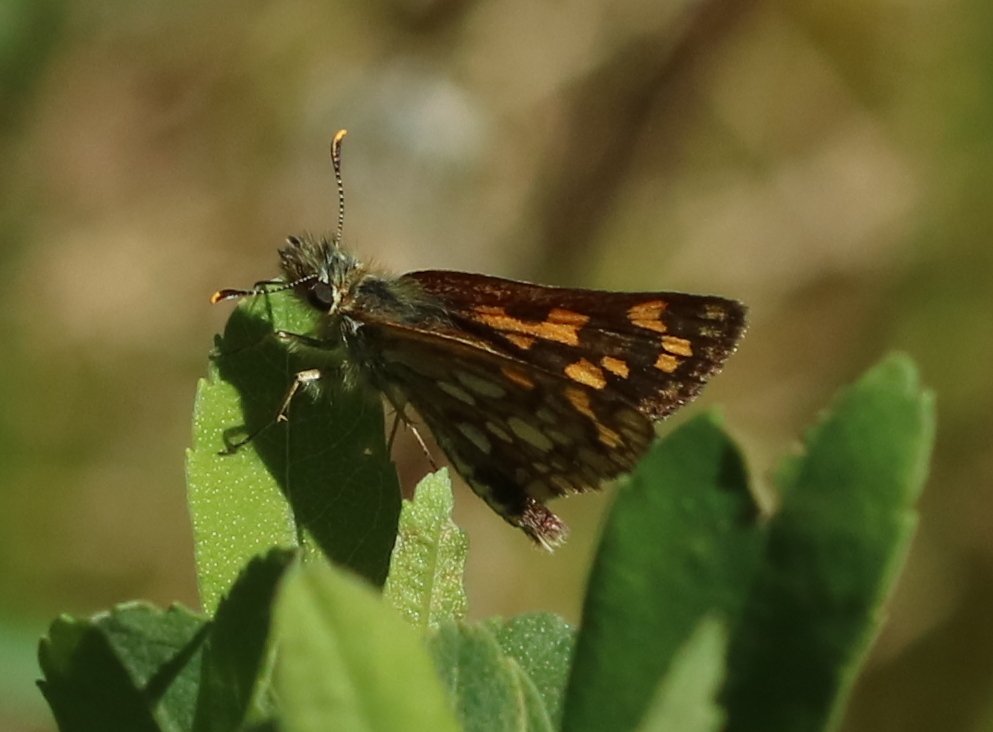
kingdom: Animalia
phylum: Arthropoda
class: Insecta
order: Lepidoptera
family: Hesperiidae
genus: Carterocephalus
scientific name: Carterocephalus palaemon
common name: Chequered Skipper
